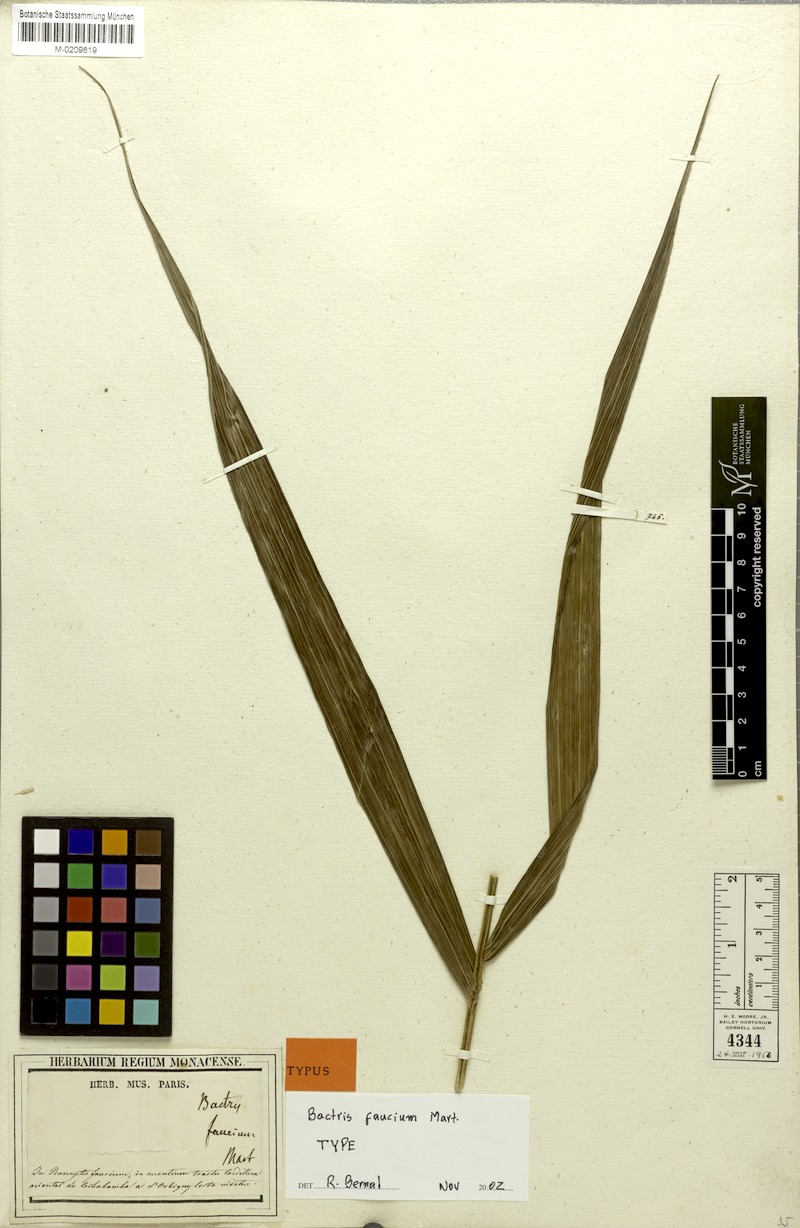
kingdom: Plantae
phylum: Tracheophyta
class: Liliopsida
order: Arecales
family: Arecaceae
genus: Bactris
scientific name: Bactris faucium
